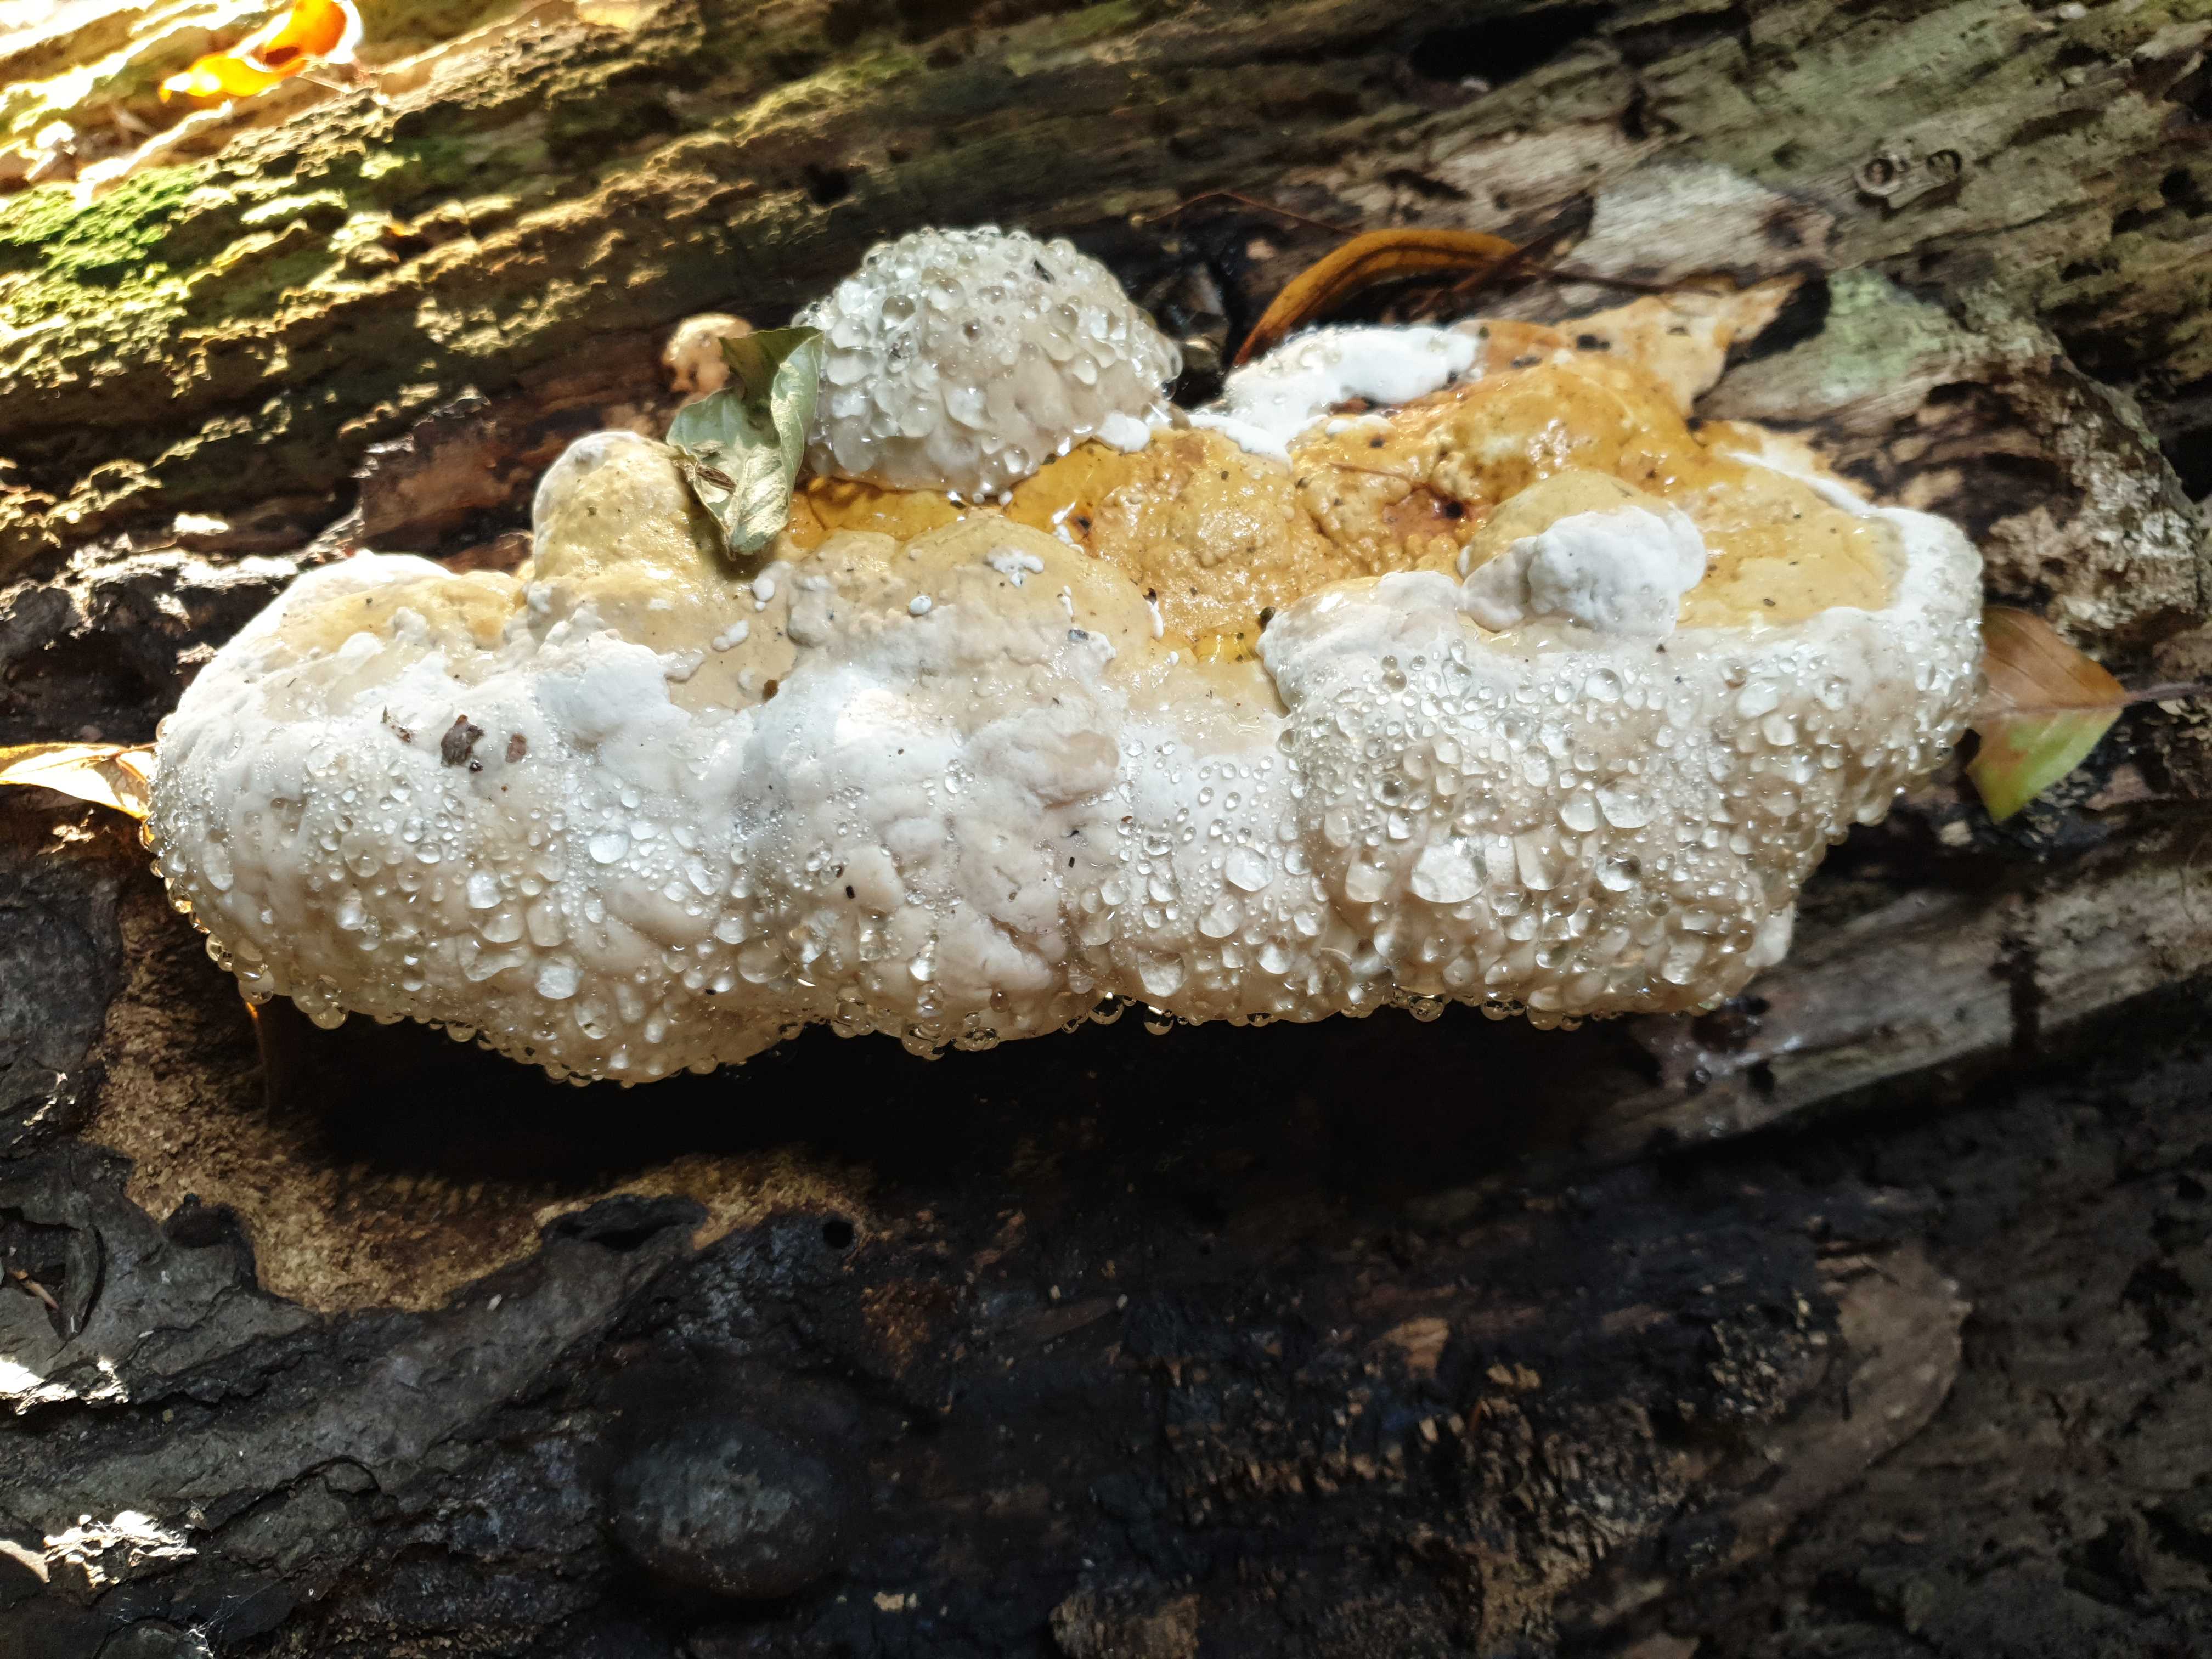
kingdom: Fungi
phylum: Basidiomycota
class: Agaricomycetes
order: Polyporales
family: Fomitopsidaceae
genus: Fomitopsis
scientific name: Fomitopsis pinicola
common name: randbæltet hovporesvamp
